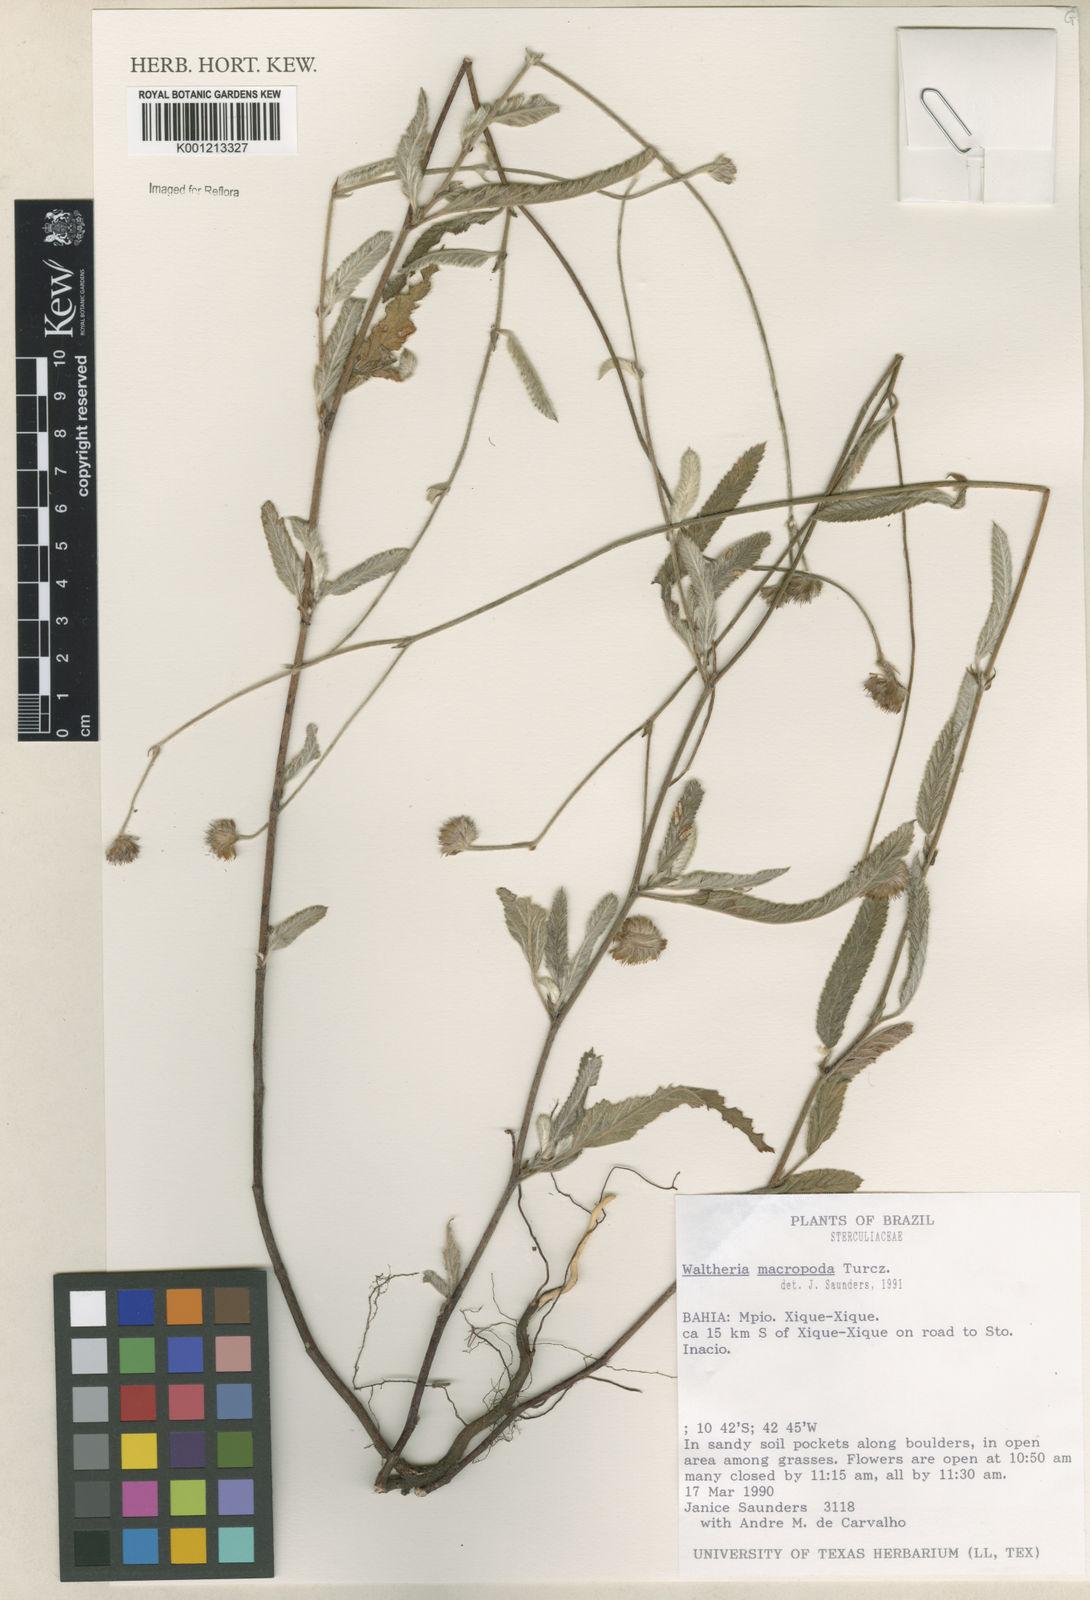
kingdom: Plantae
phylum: Tracheophyta
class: Magnoliopsida
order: Malvales
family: Malvaceae
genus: Waltheria
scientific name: Waltheria bracteosa
